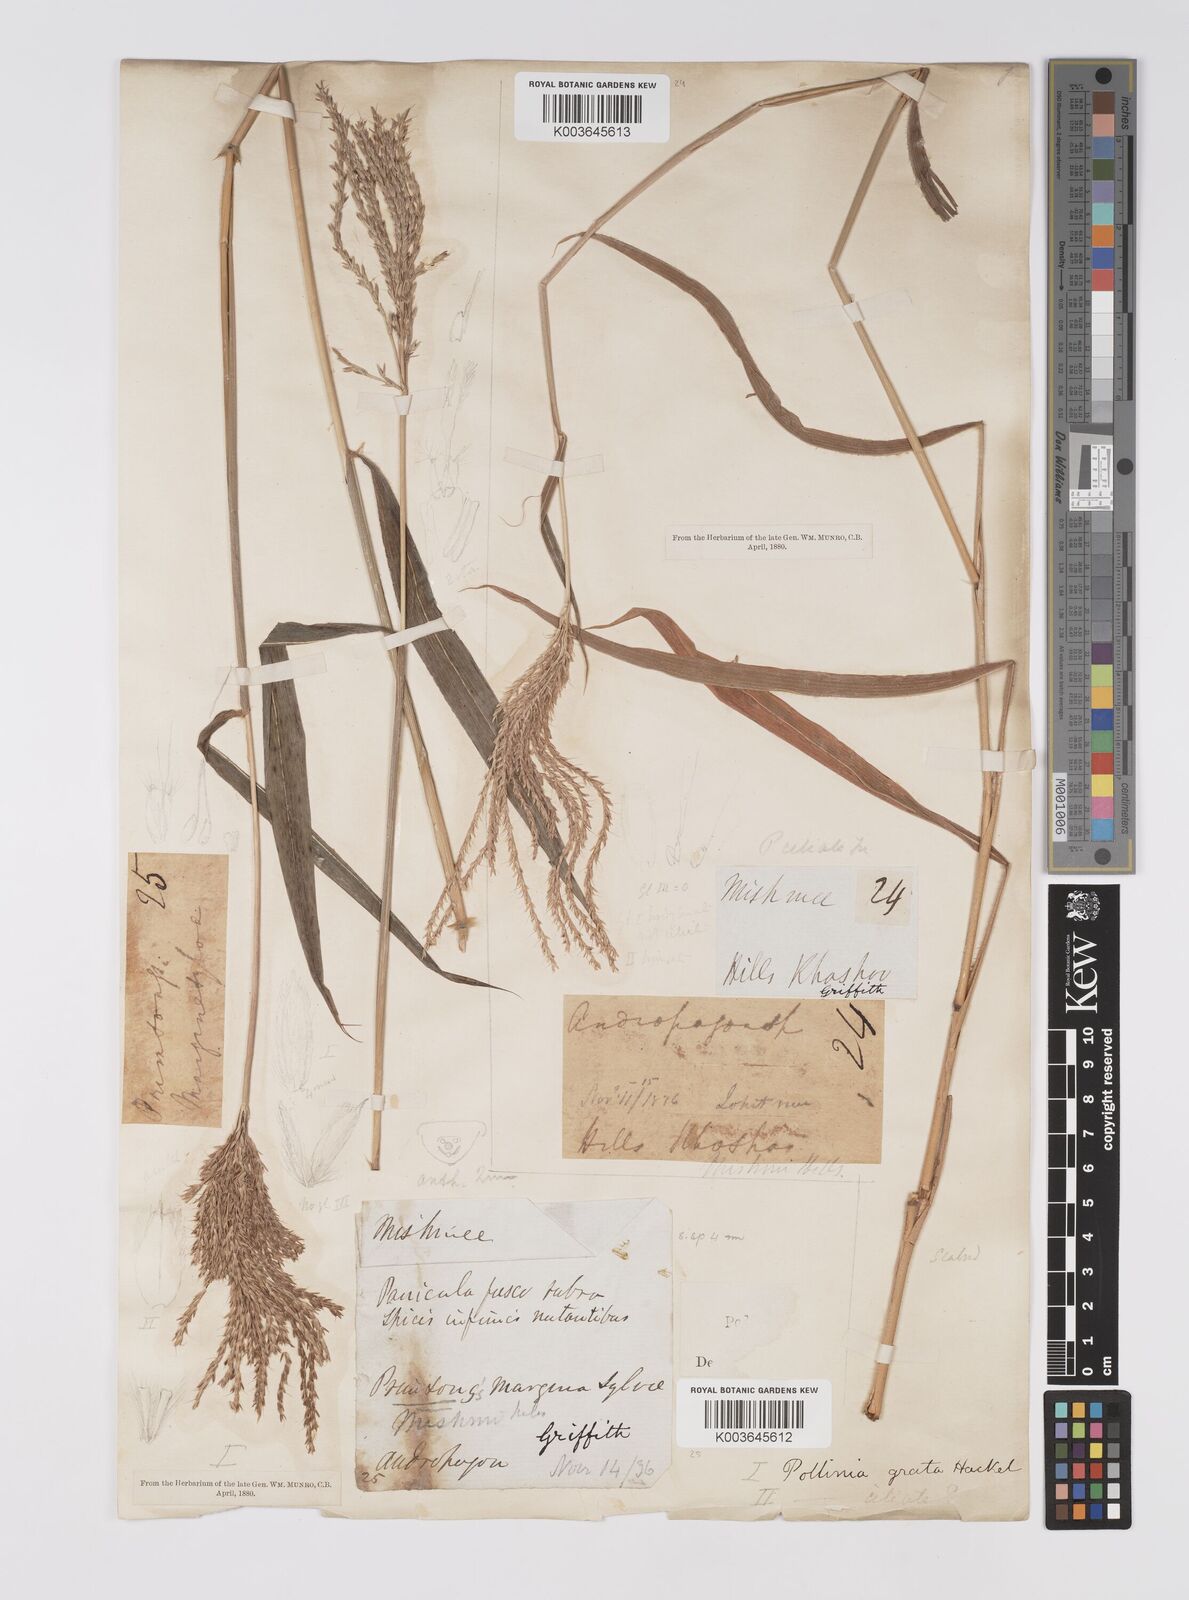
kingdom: Plantae
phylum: Tracheophyta
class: Liliopsida
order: Poales
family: Poaceae
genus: Microstegium
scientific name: Microstegium fasciculatum
